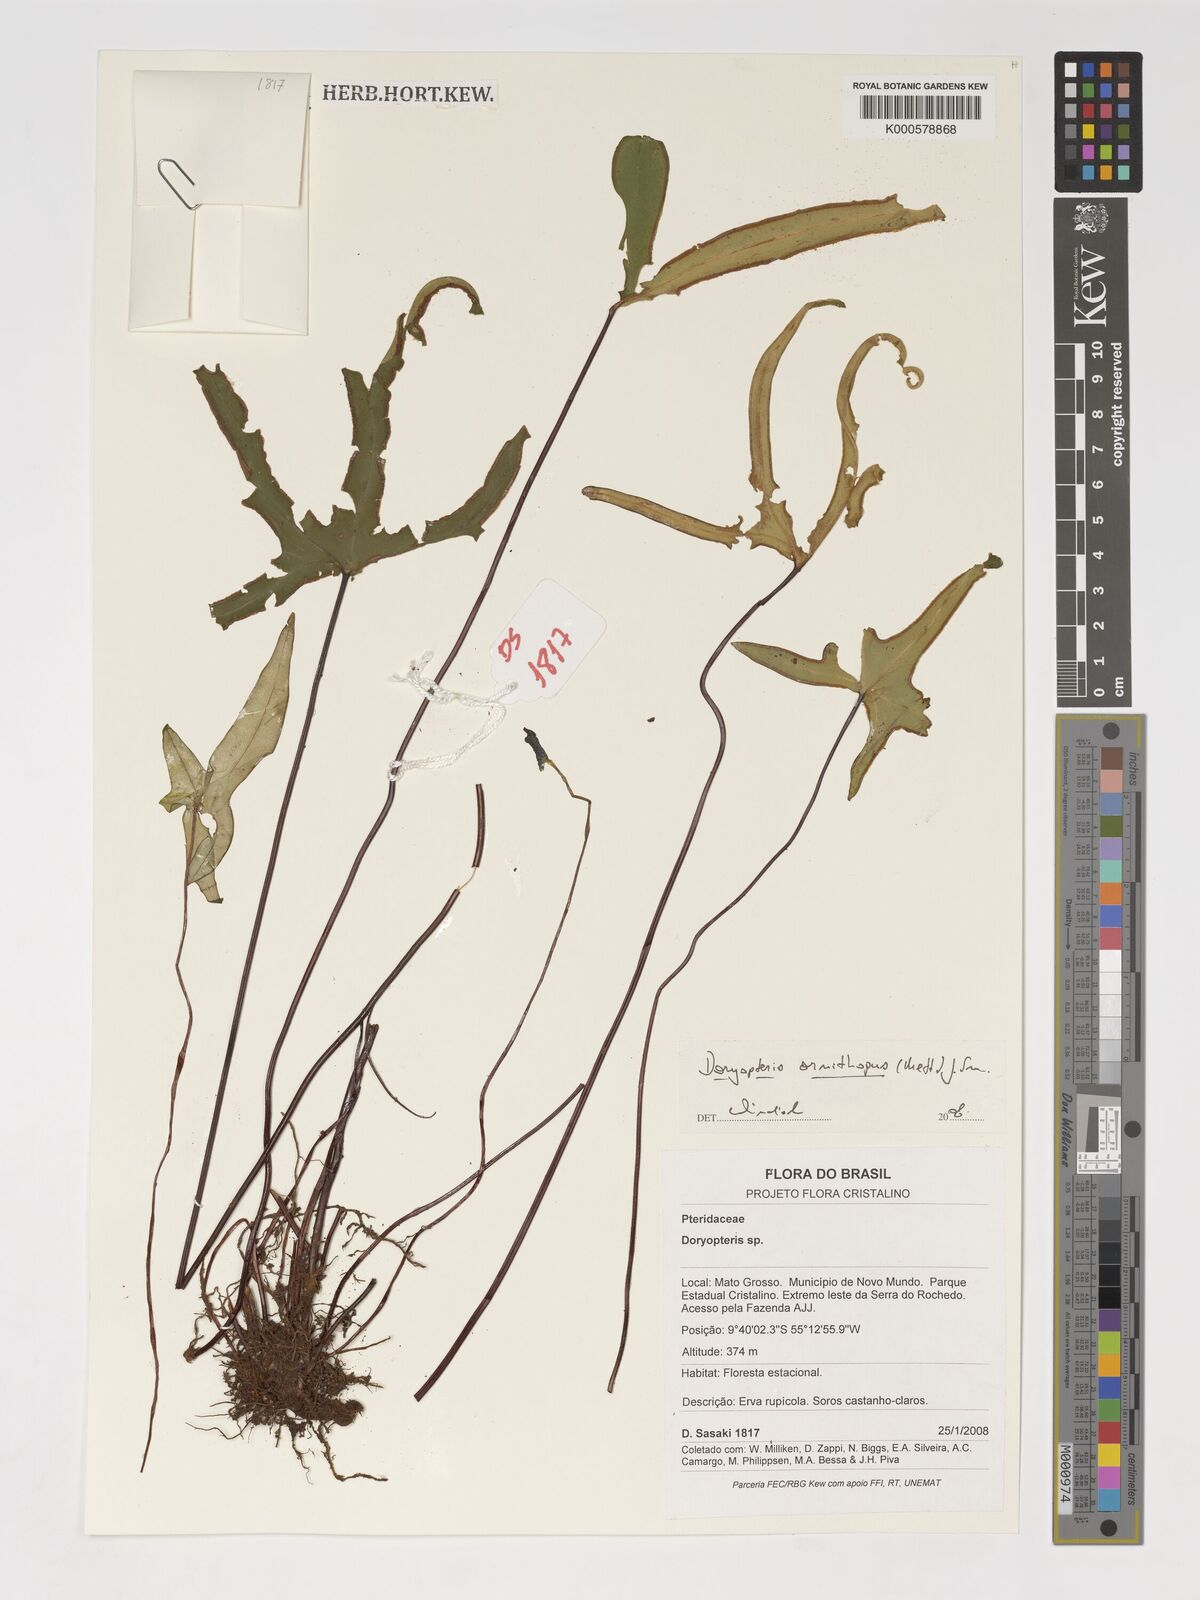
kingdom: Plantae
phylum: Tracheophyta
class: Polypodiopsida
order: Polypodiales
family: Pteridaceae
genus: Lytoneuron
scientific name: Lytoneuron ornithopus
